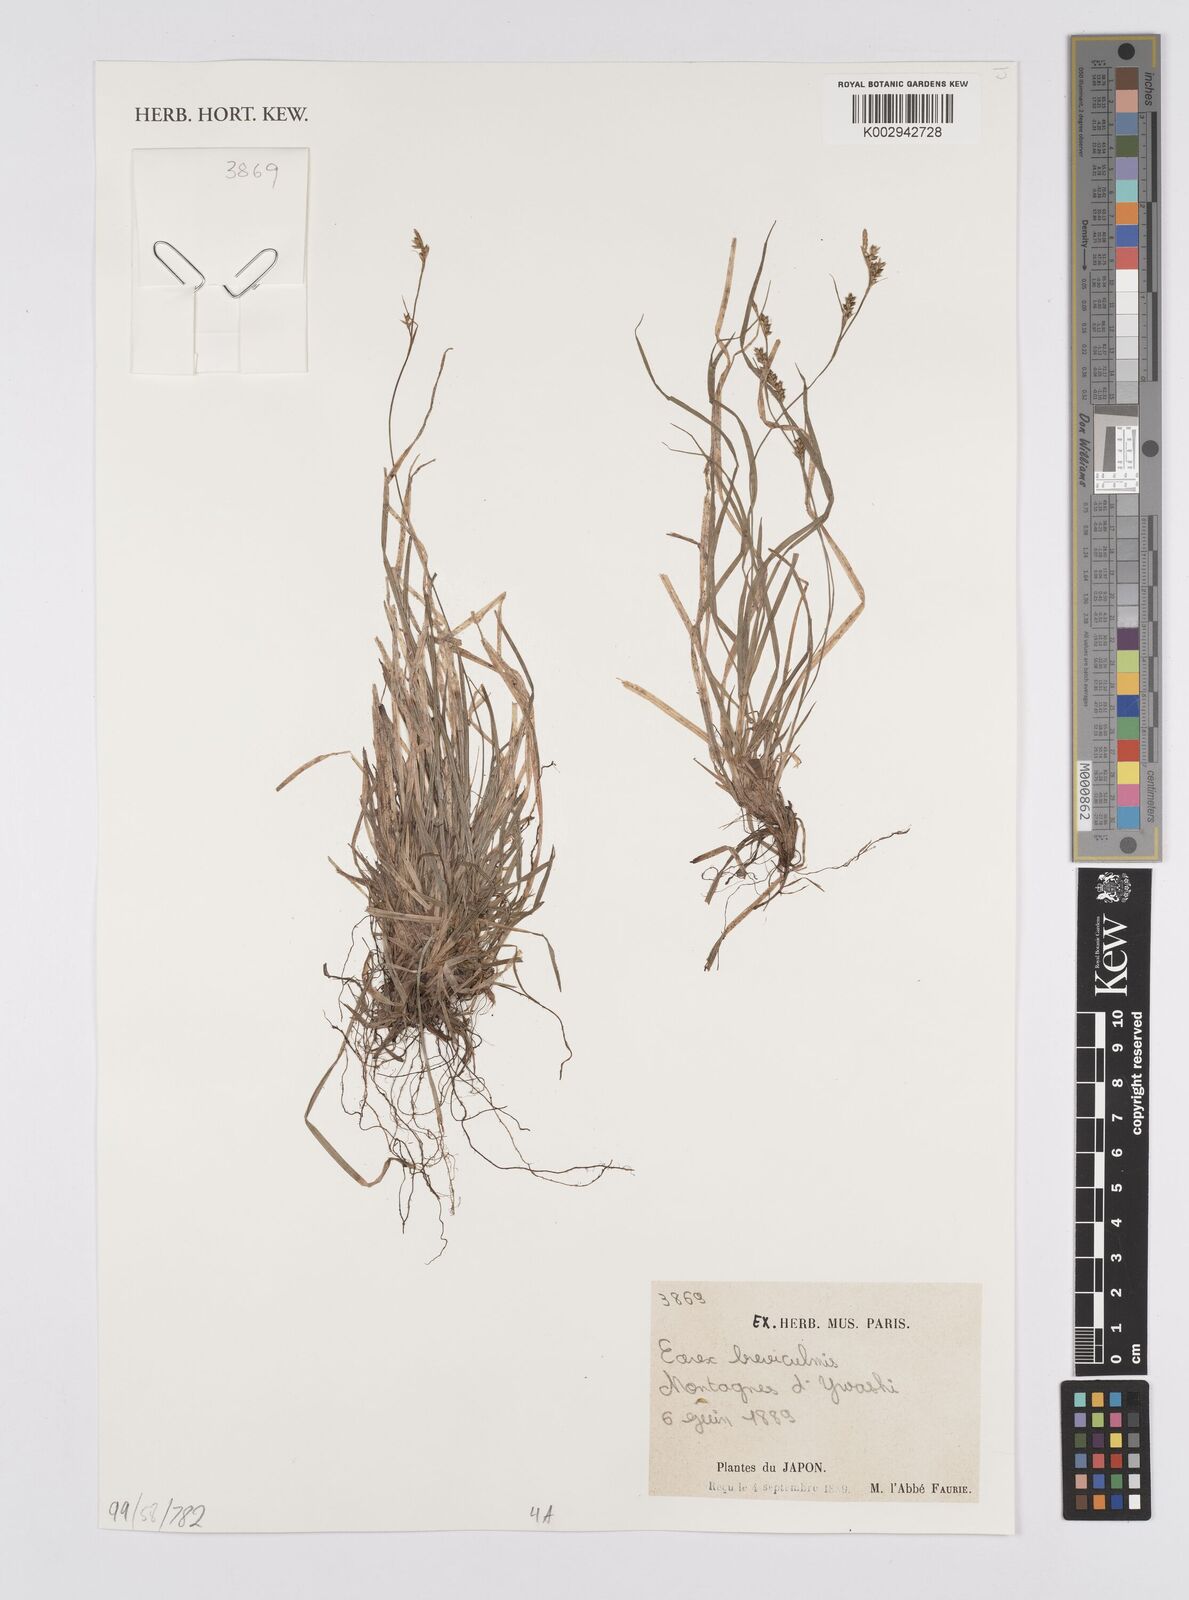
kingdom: Plantae
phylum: Tracheophyta
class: Liliopsida
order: Poales
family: Cyperaceae
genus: Carex
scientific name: Carex ligulata
